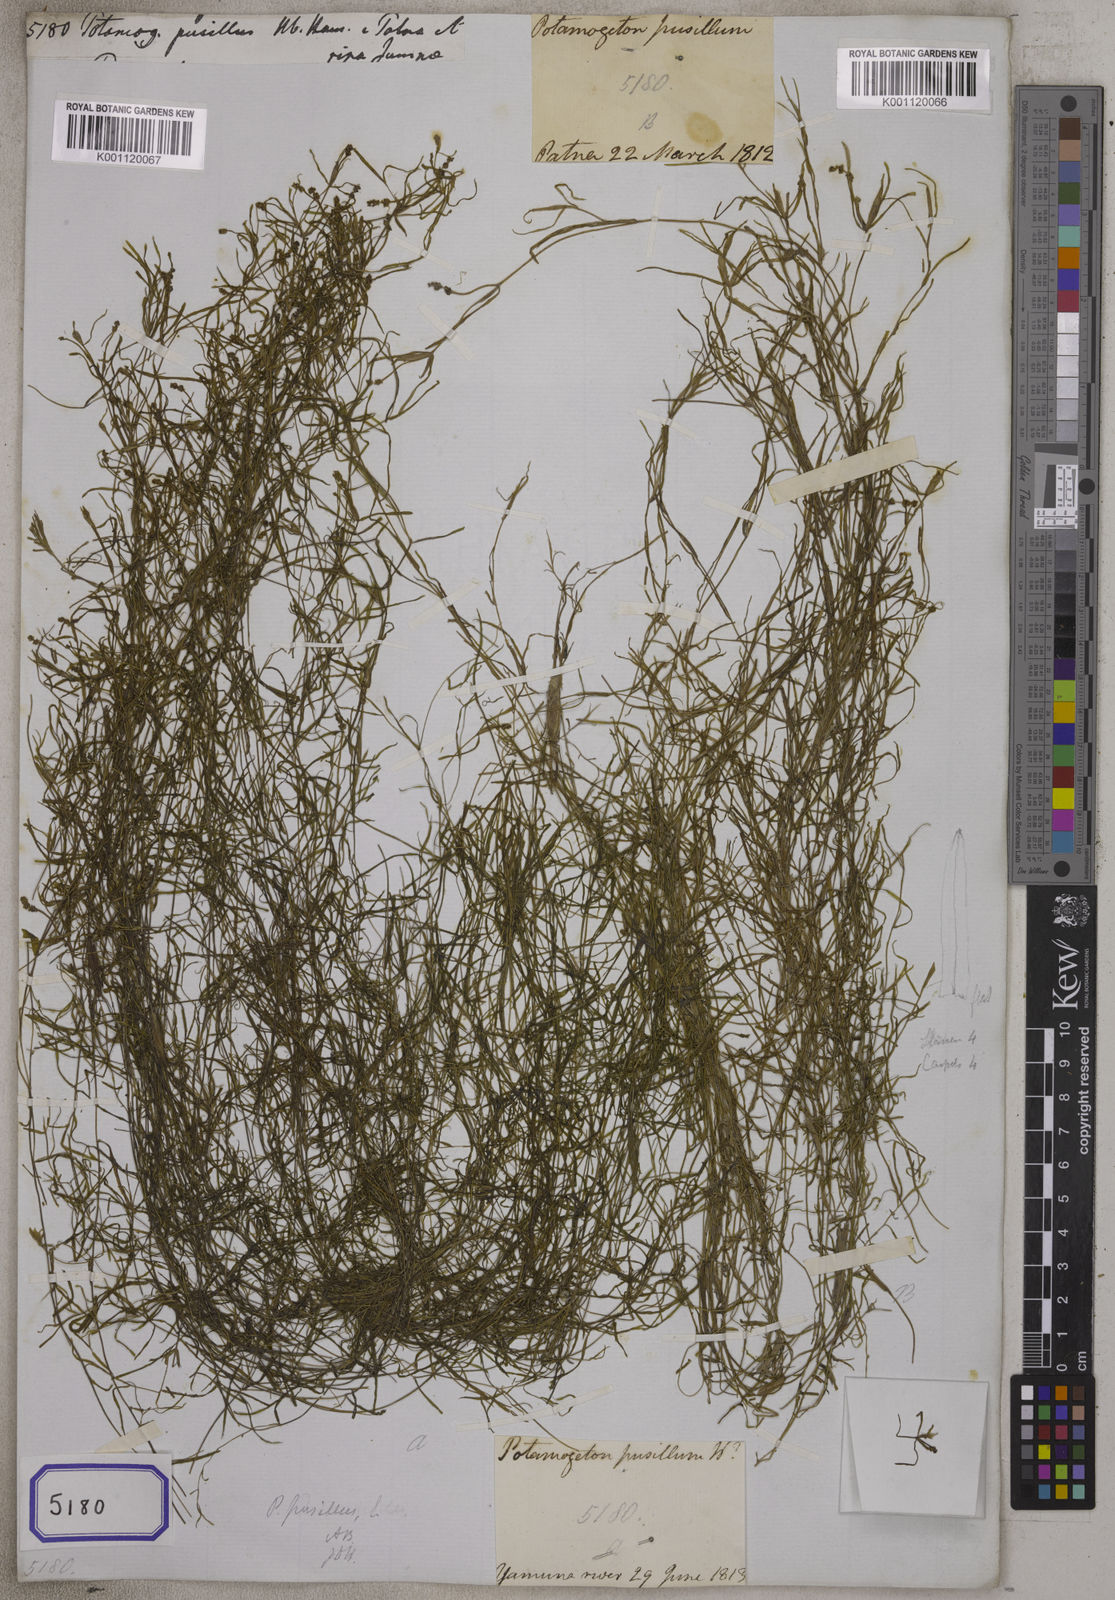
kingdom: Plantae
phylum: Tracheophyta
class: Liliopsida
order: Alismatales
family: Potamogetonaceae
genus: Potamogeton
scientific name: Potamogeton pusillus
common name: Lesser pondweed
